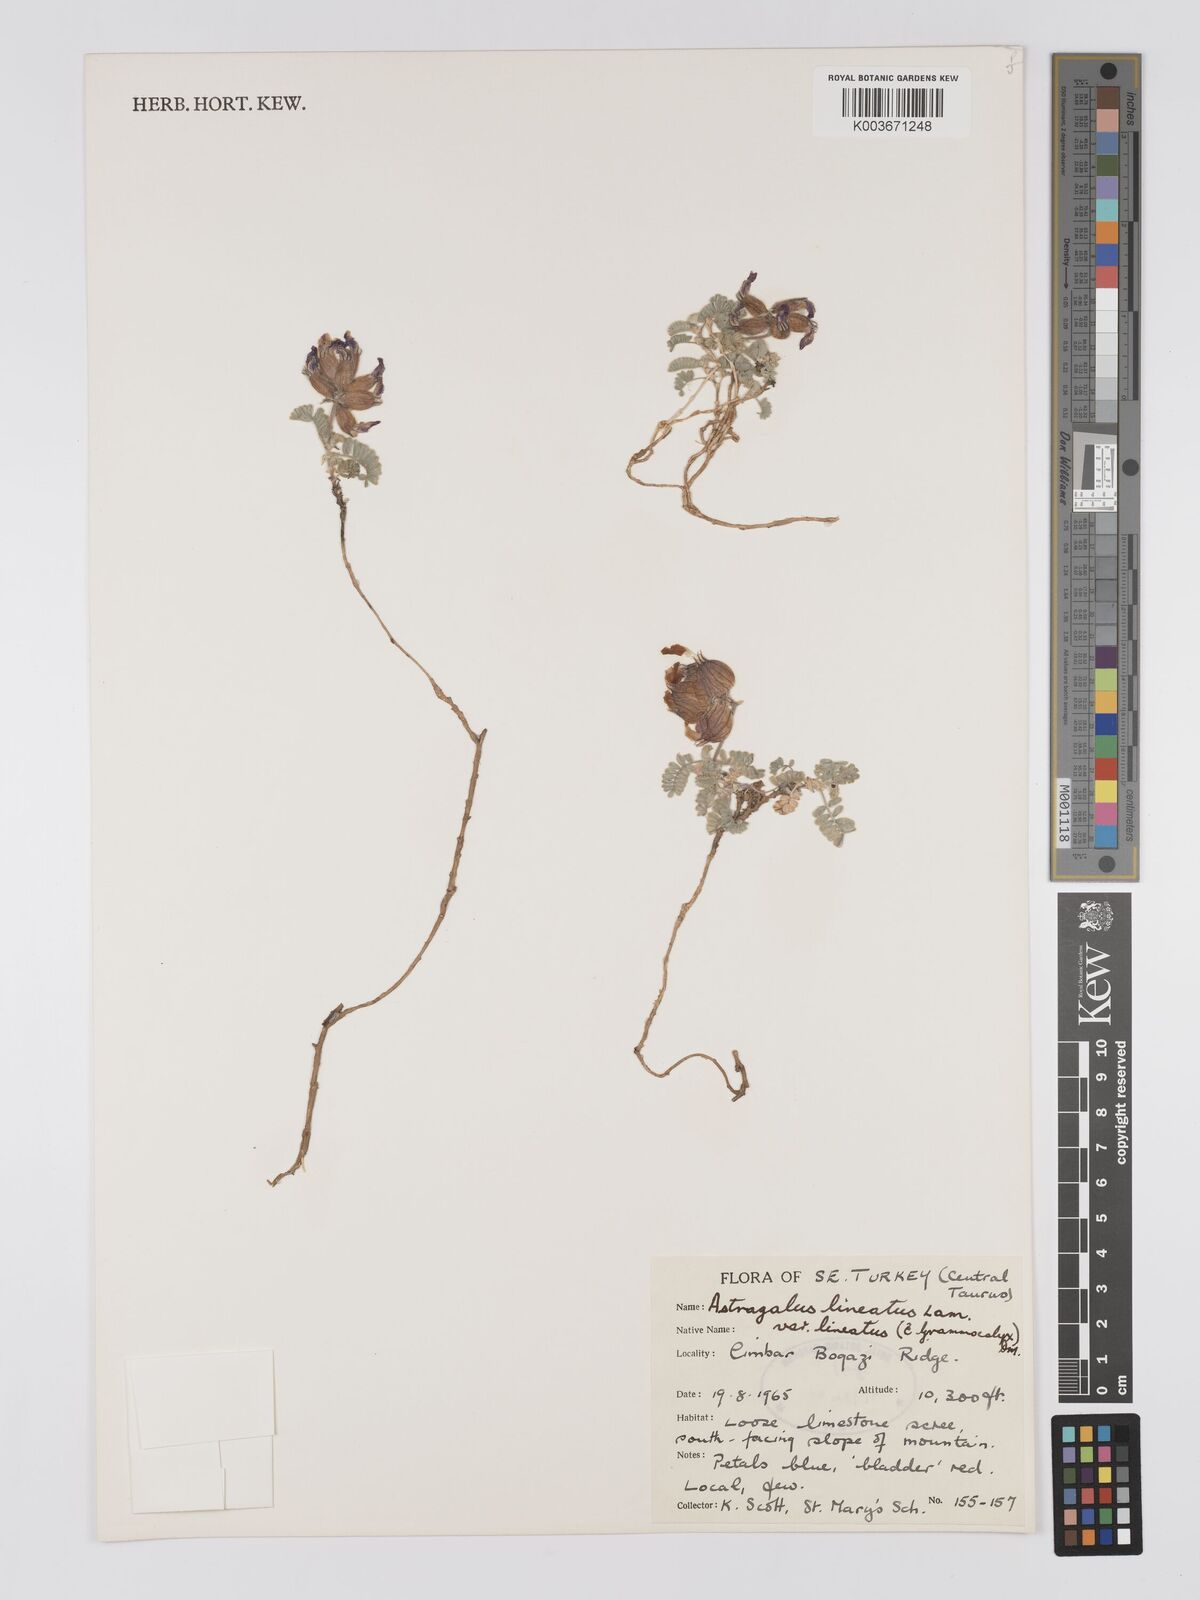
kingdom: Plantae
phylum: Tracheophyta
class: Magnoliopsida
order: Fabales
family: Fabaceae
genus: Astragalus
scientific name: Astragalus lineatus
